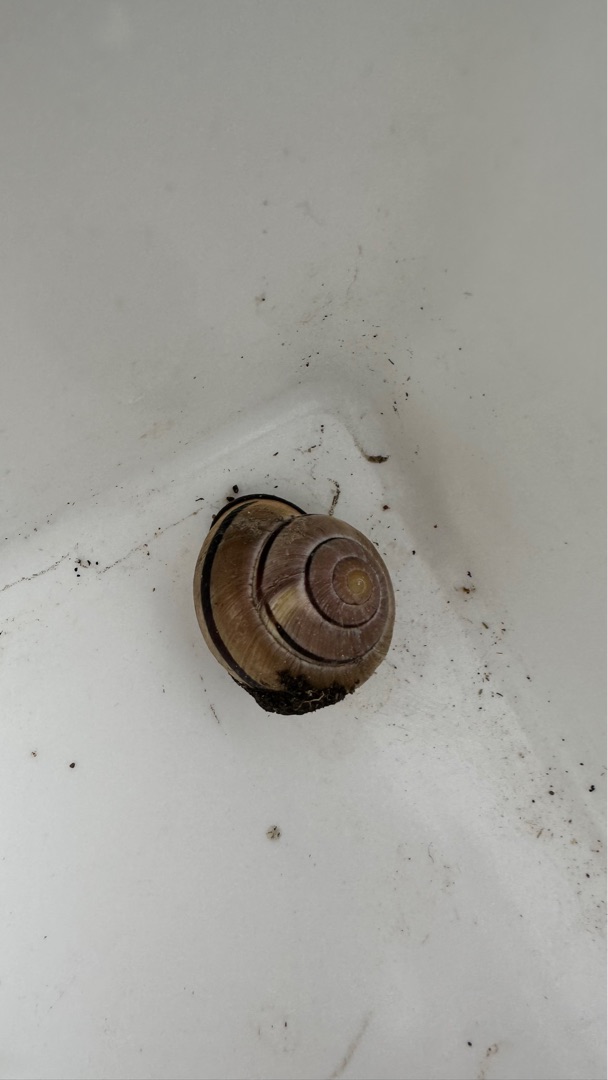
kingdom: Animalia
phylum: Mollusca
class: Gastropoda
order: Stylommatophora
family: Helicidae
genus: Cepaea
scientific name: Cepaea nemoralis
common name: Lundsnegl
